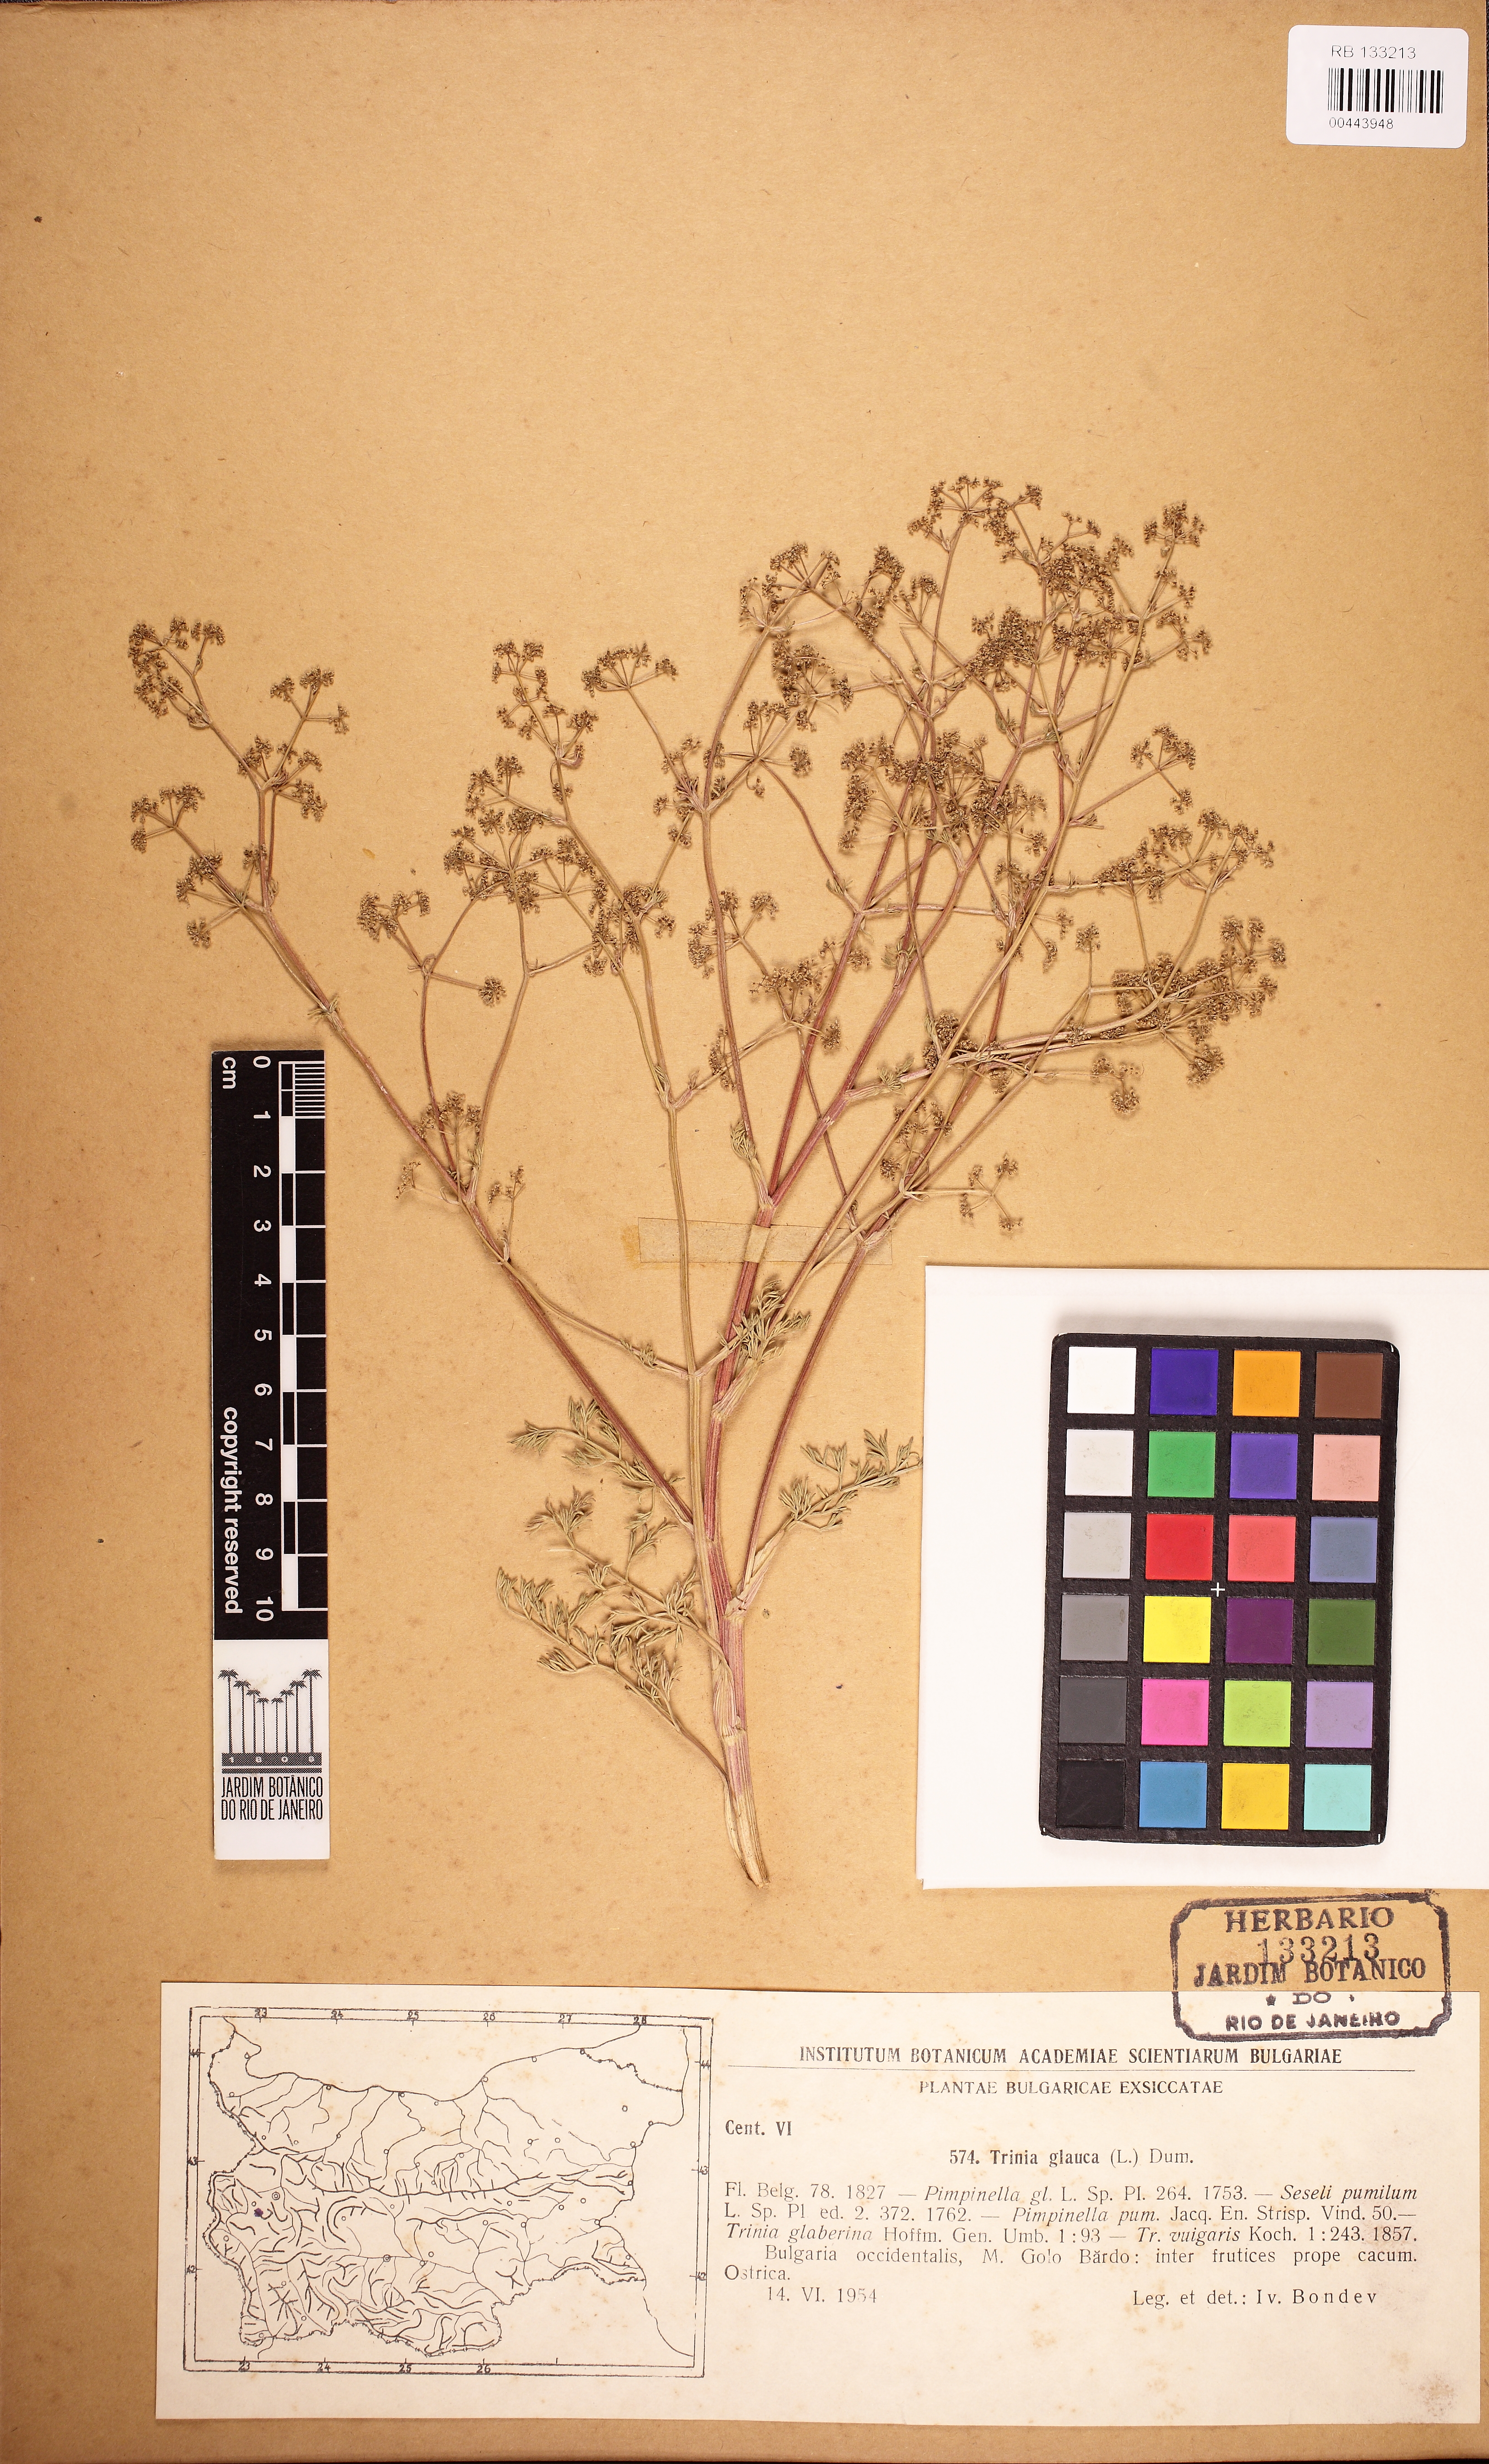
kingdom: Plantae
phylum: Tracheophyta
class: Magnoliopsida
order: Apiales
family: Araliaceae
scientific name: Araliaceae
